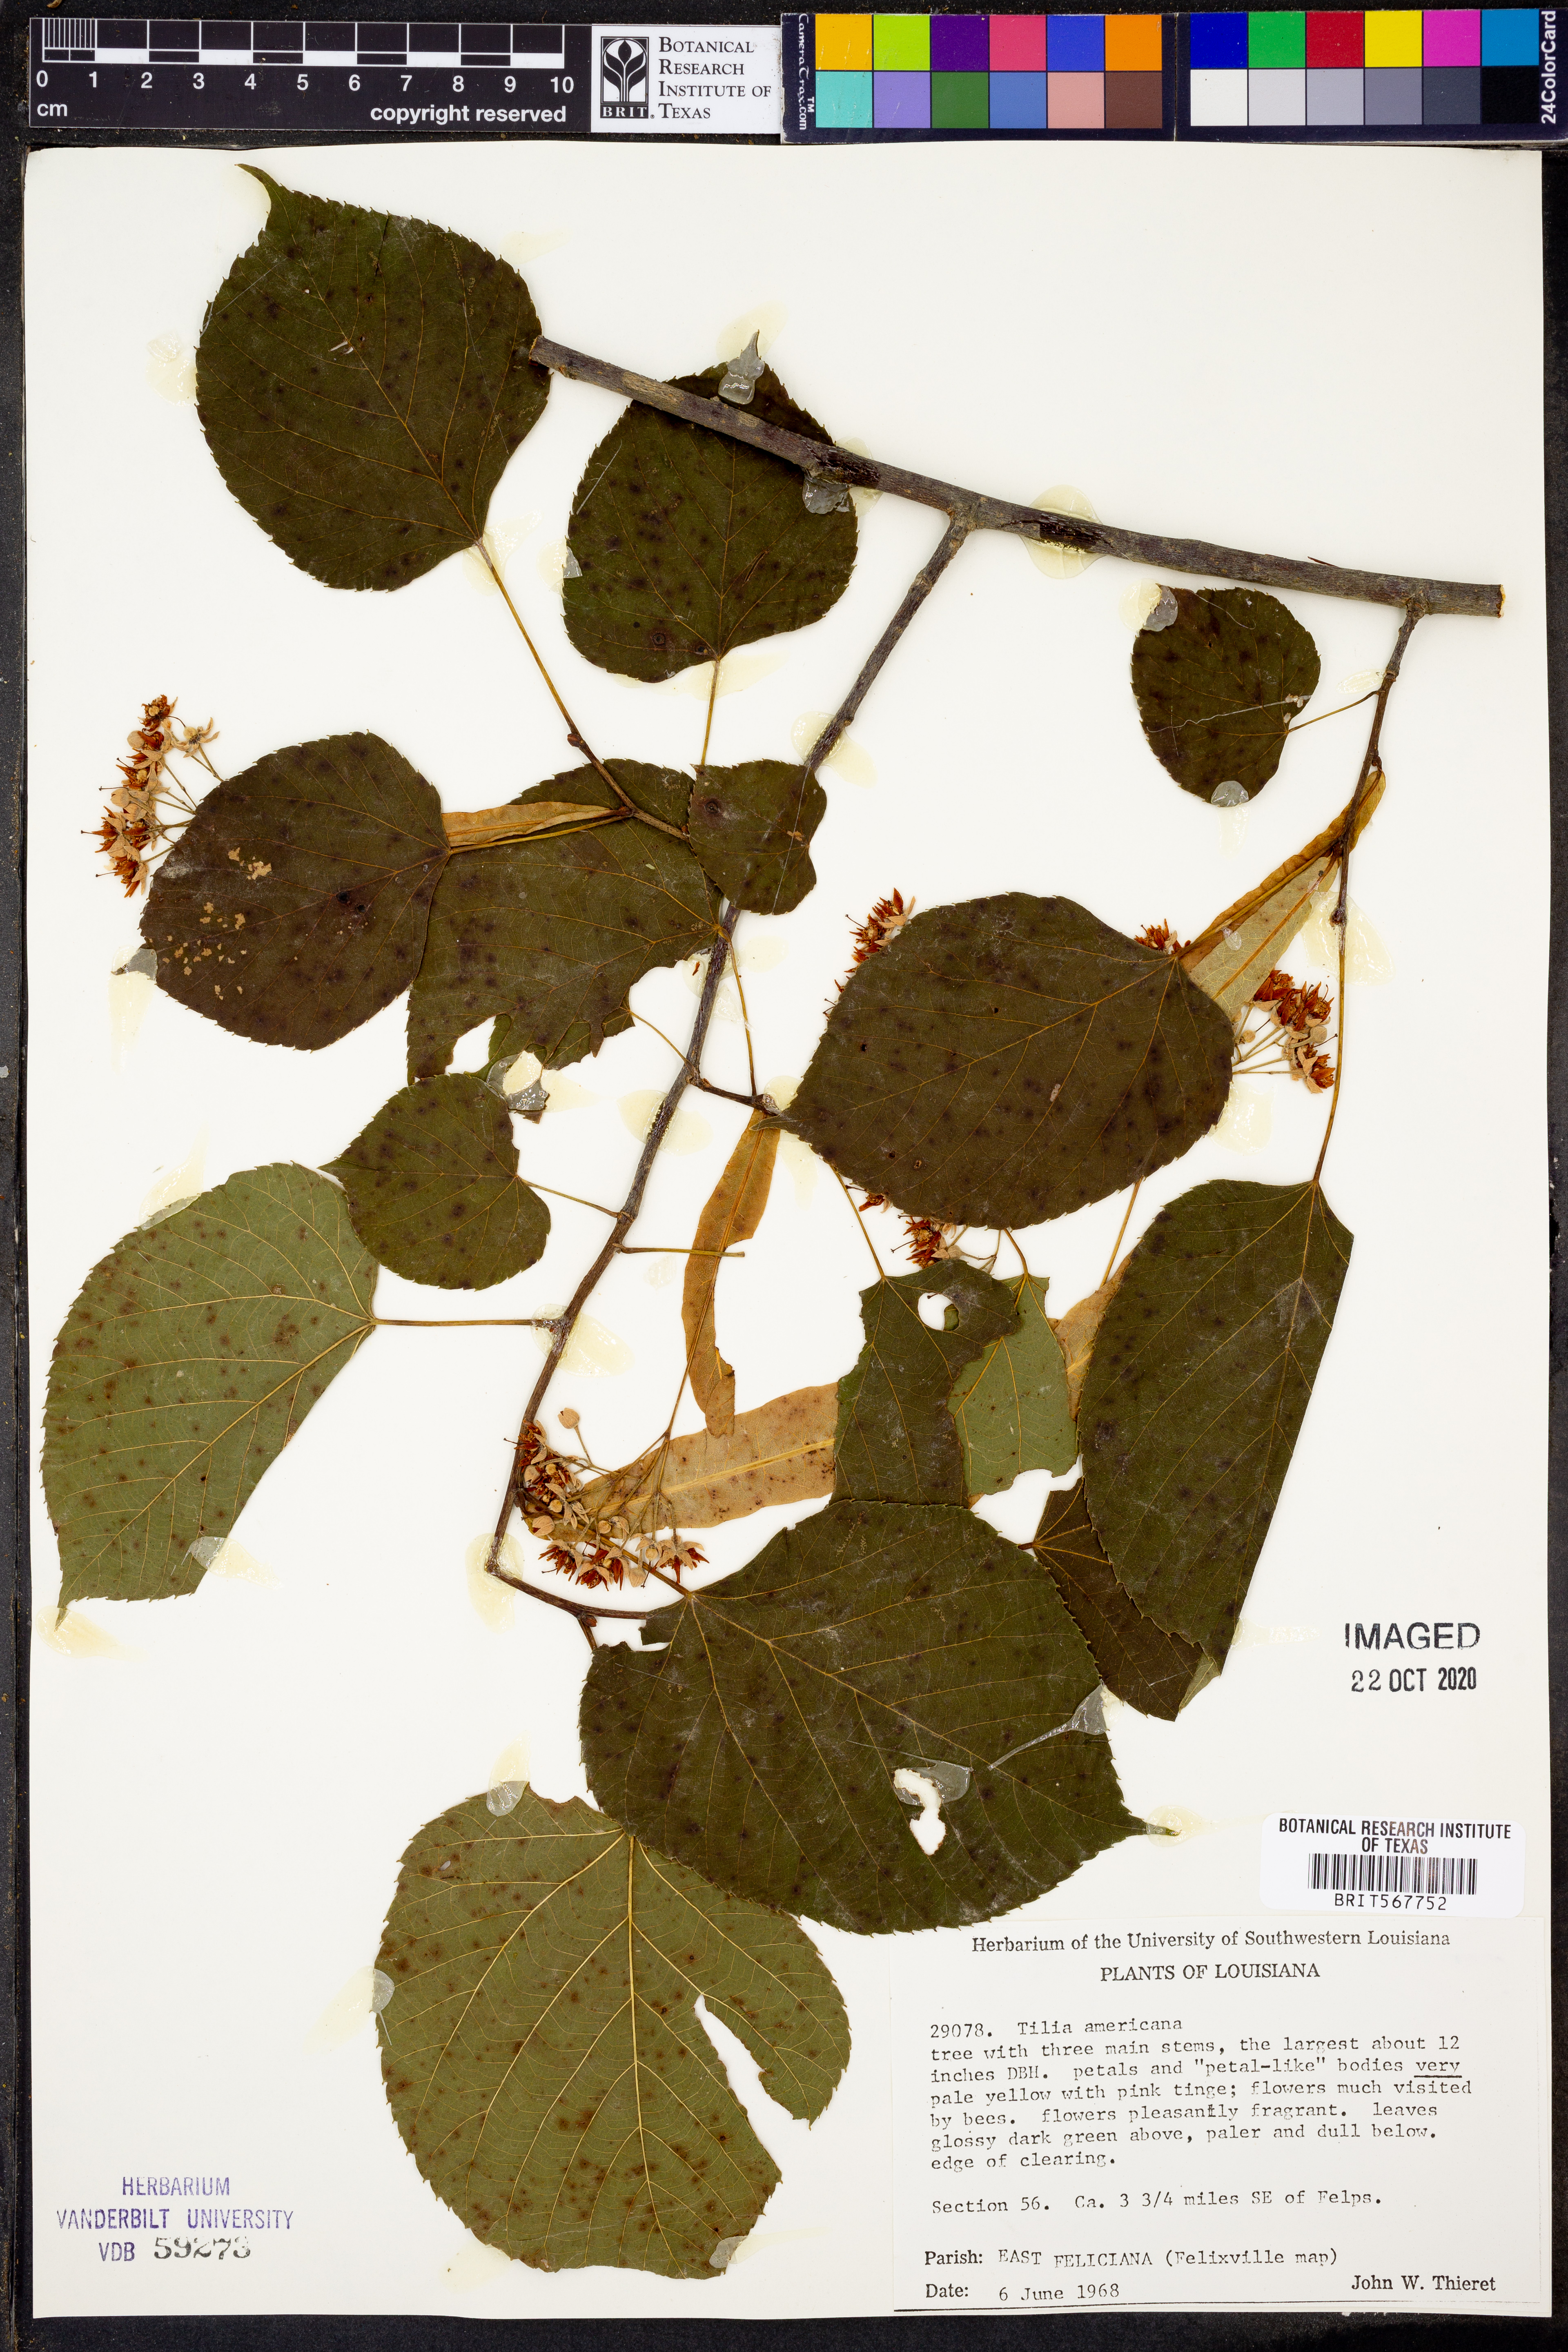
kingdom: Plantae
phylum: Tracheophyta
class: Magnoliopsida
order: Malvales
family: Malvaceae
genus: Tilia
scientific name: Tilia americana
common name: Basswood
